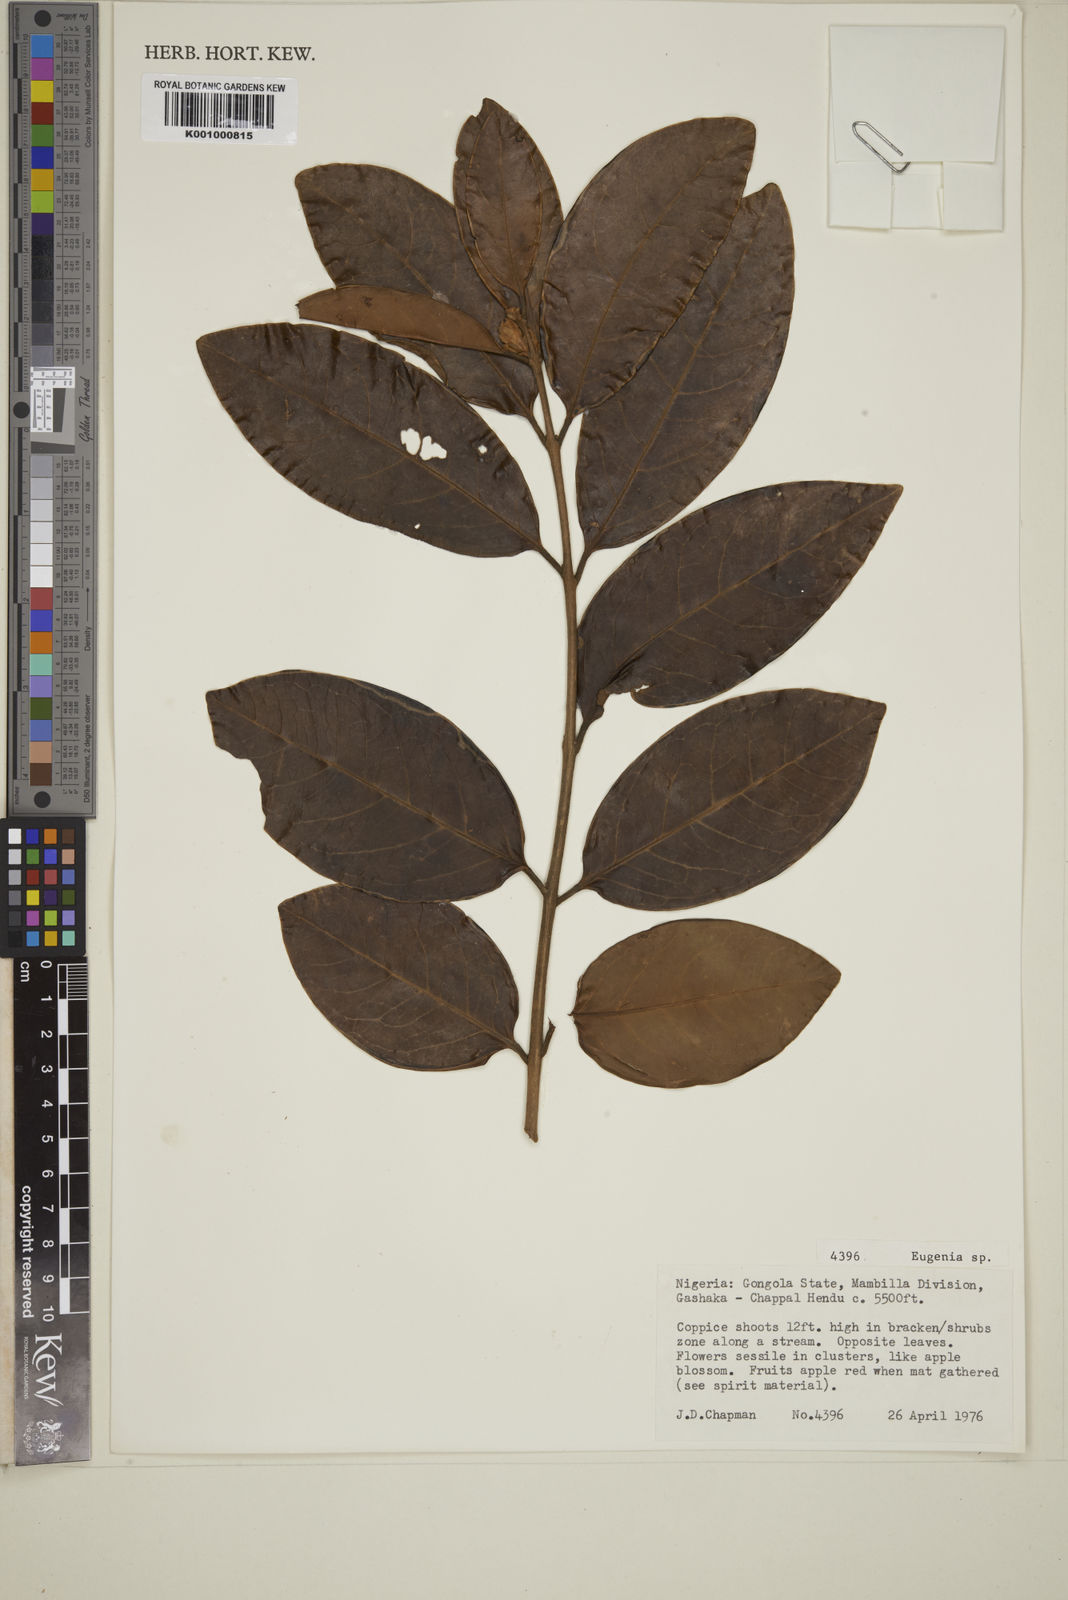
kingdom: Plantae
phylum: Tracheophyta
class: Magnoliopsida
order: Myrtales
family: Myrtaceae
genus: Eugenia
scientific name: Eugenia
